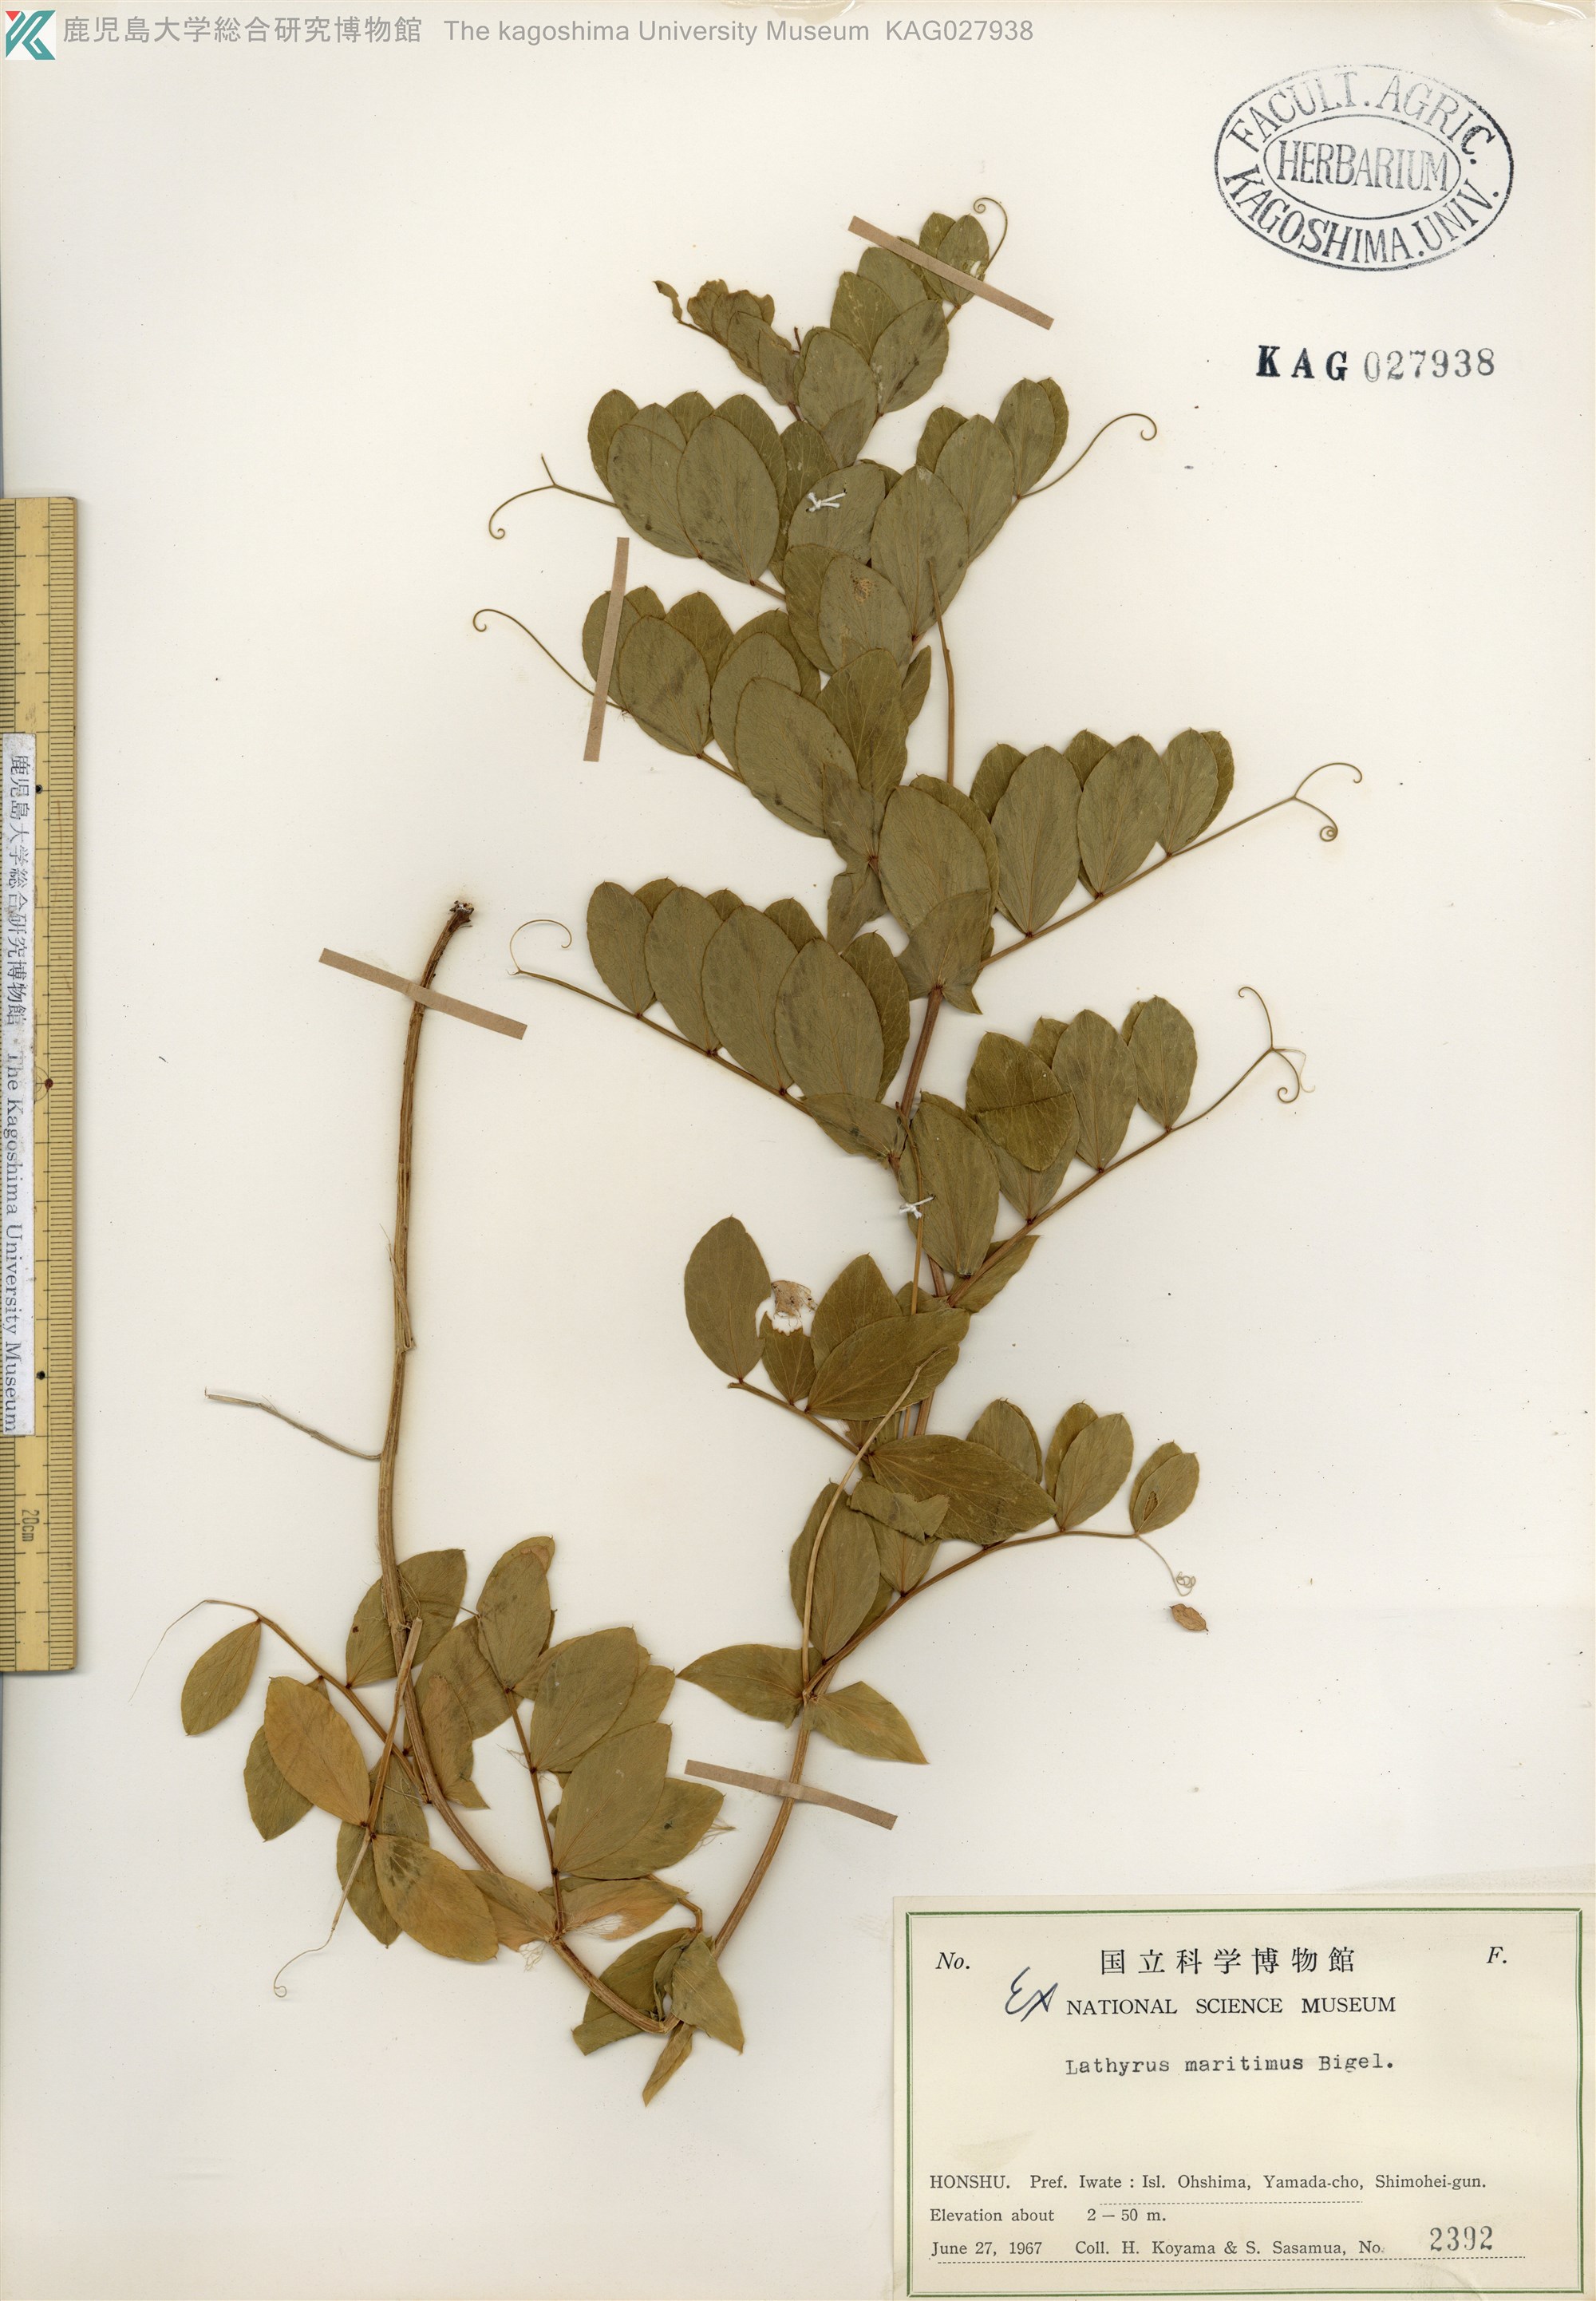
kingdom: Plantae
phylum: Tracheophyta
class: Magnoliopsida
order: Fabales
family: Fabaceae
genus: Lathyrus
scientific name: Lathyrus japonicus
